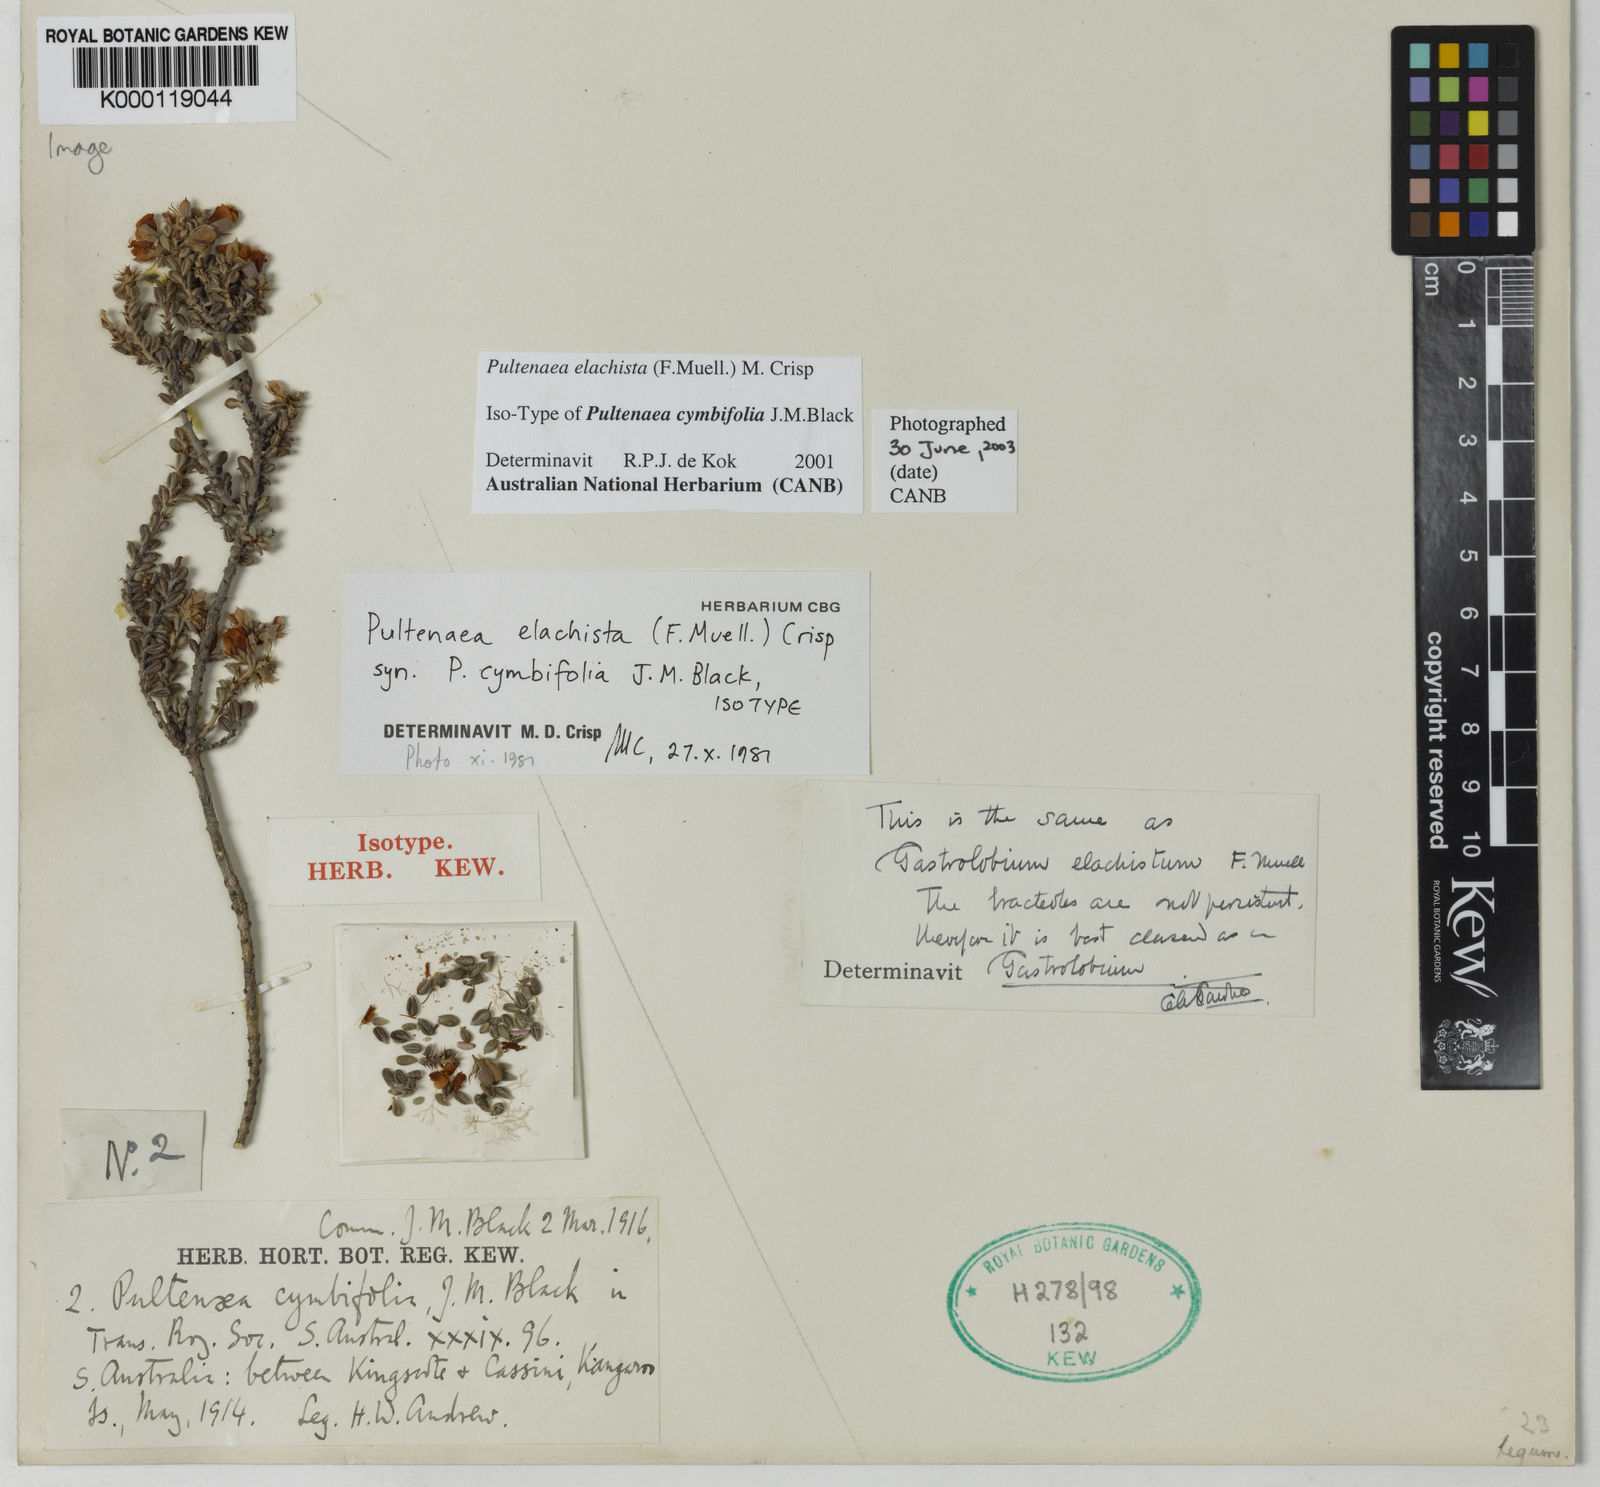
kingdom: Plantae
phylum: Tracheophyta
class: Magnoliopsida
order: Fabales
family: Fabaceae
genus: Pultenaea
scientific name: Pultenaea elachista
